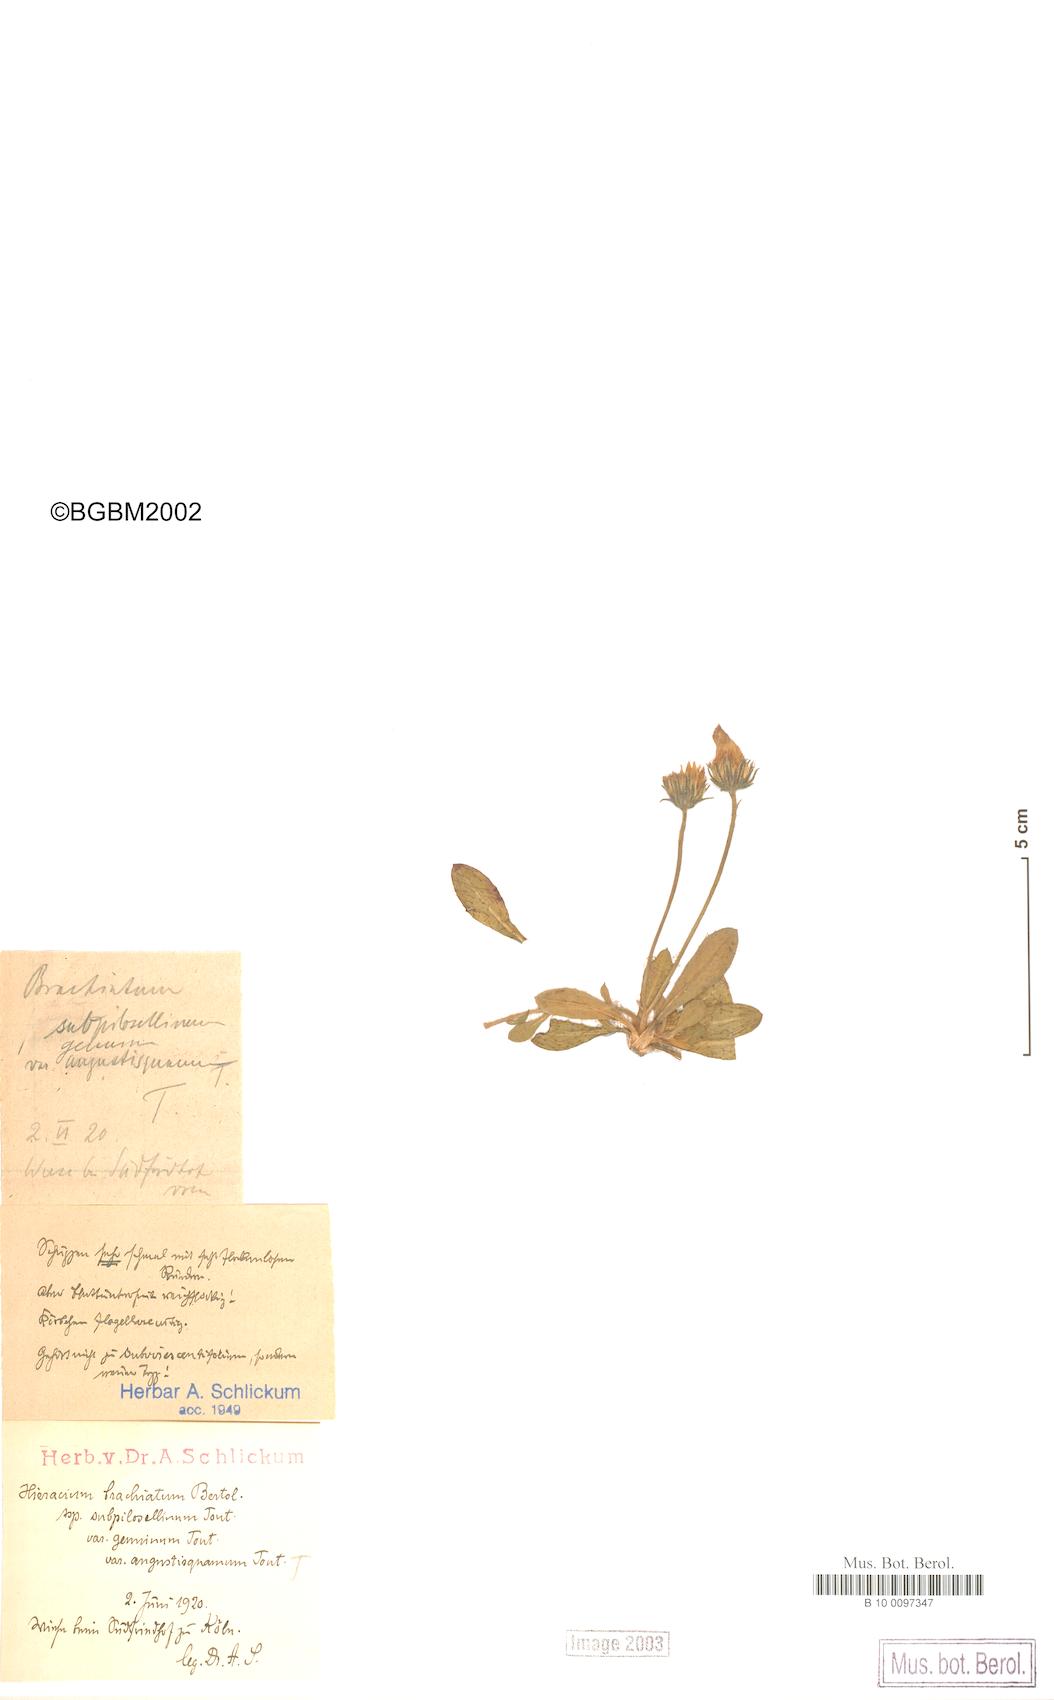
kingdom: Plantae
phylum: Tracheophyta
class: Magnoliopsida
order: Asterales
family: Asteraceae
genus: Pilosella
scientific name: Pilosella acutifolia
